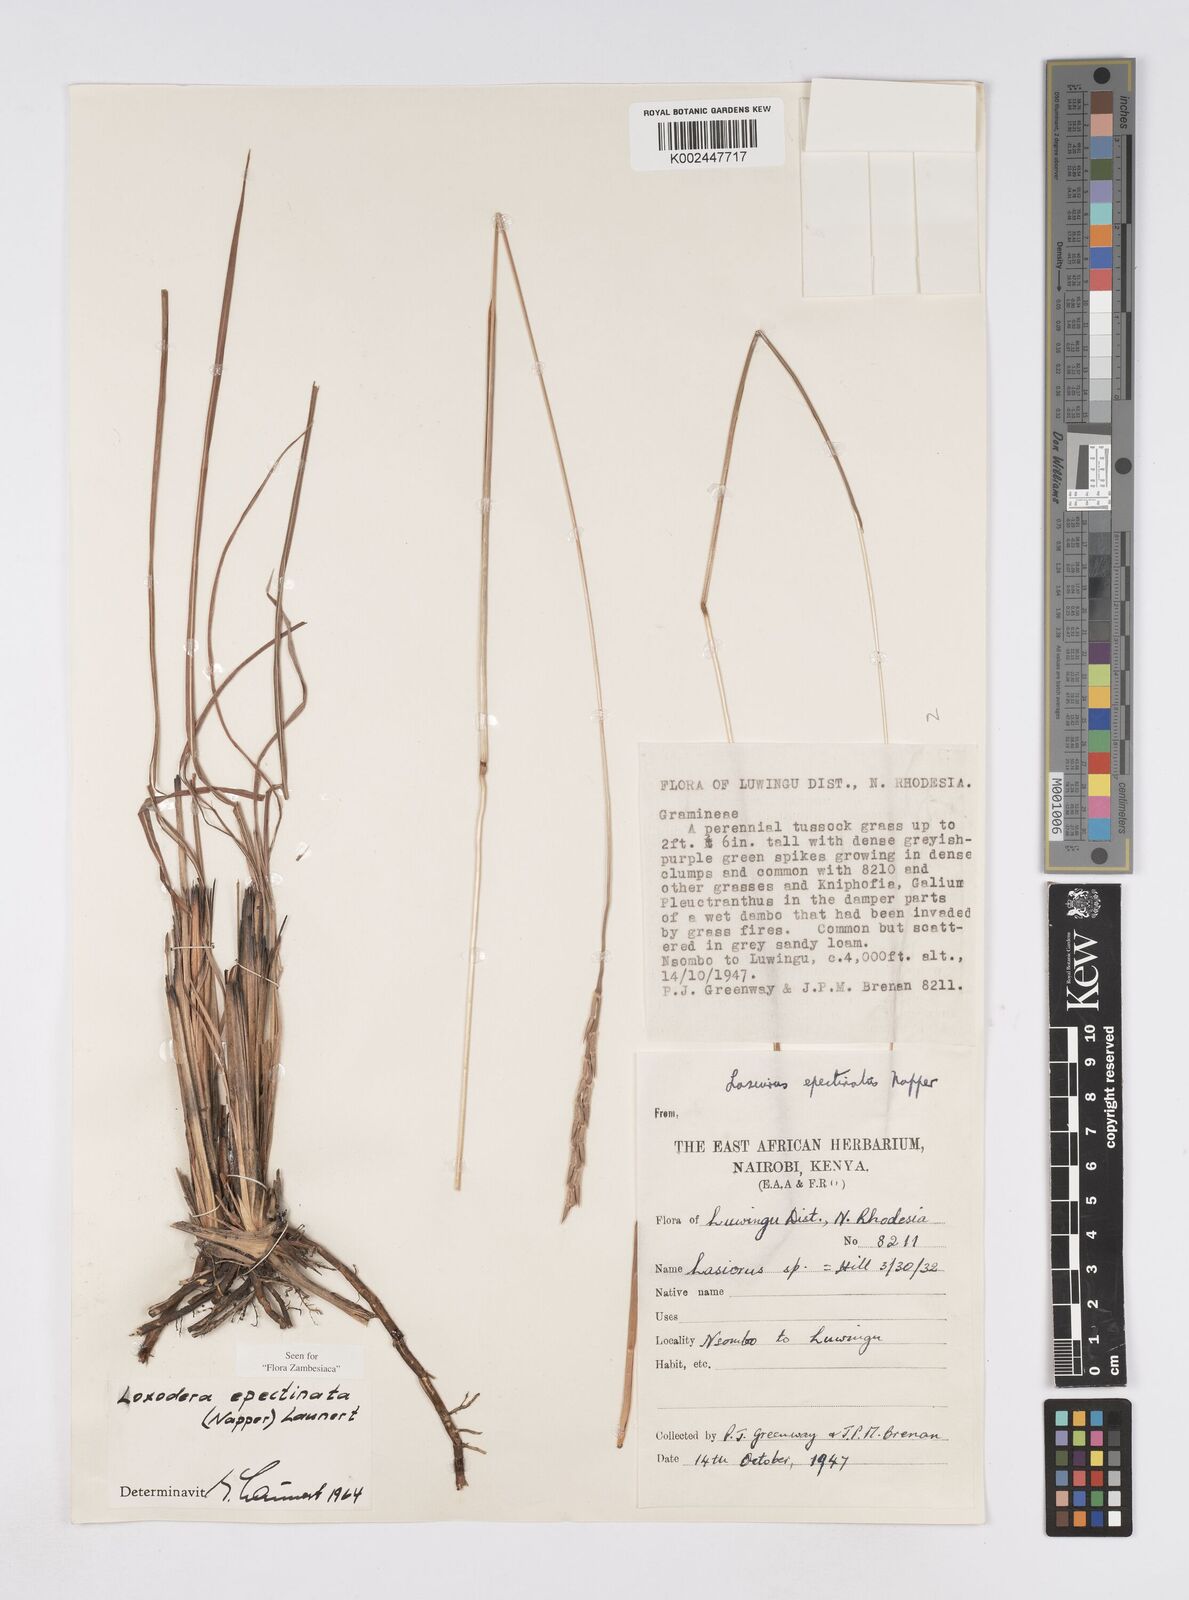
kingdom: Plantae
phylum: Tracheophyta
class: Liliopsida
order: Poales
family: Poaceae
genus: Loxodera
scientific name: Loxodera caespitosa
